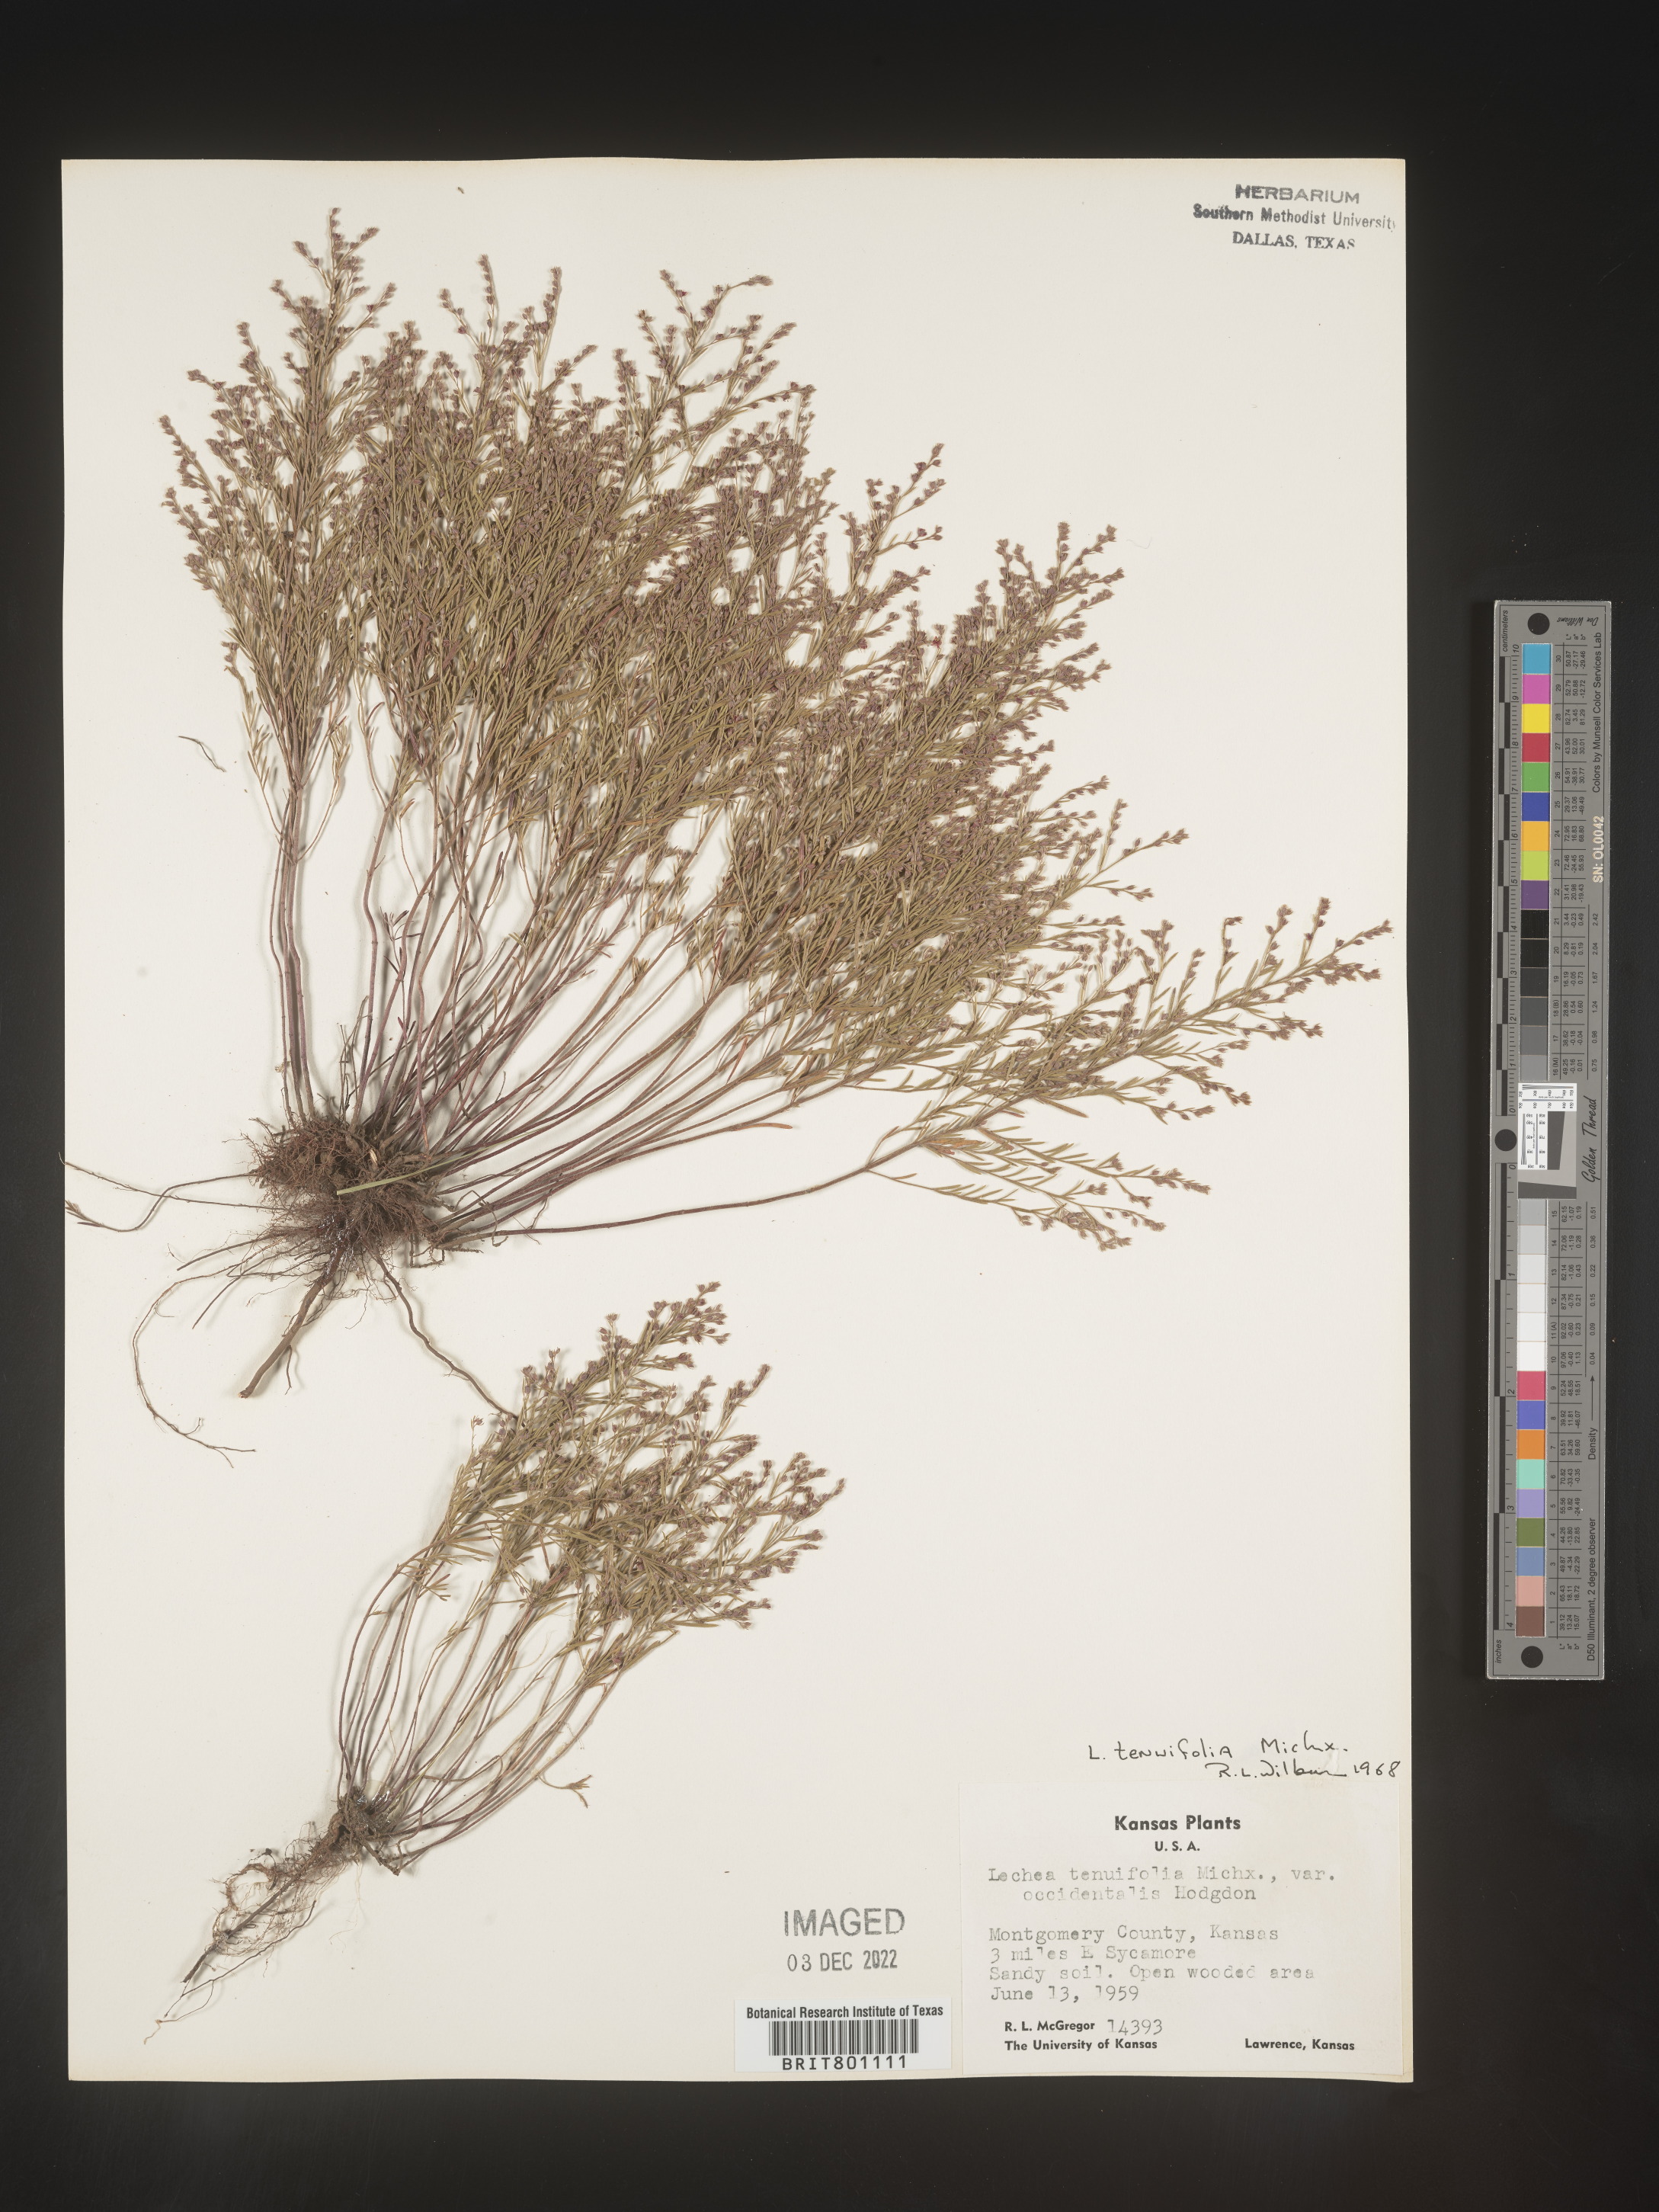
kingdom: Plantae
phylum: Tracheophyta
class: Magnoliopsida
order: Malvales
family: Cistaceae
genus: Lechea
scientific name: Lechea tenuifolia
